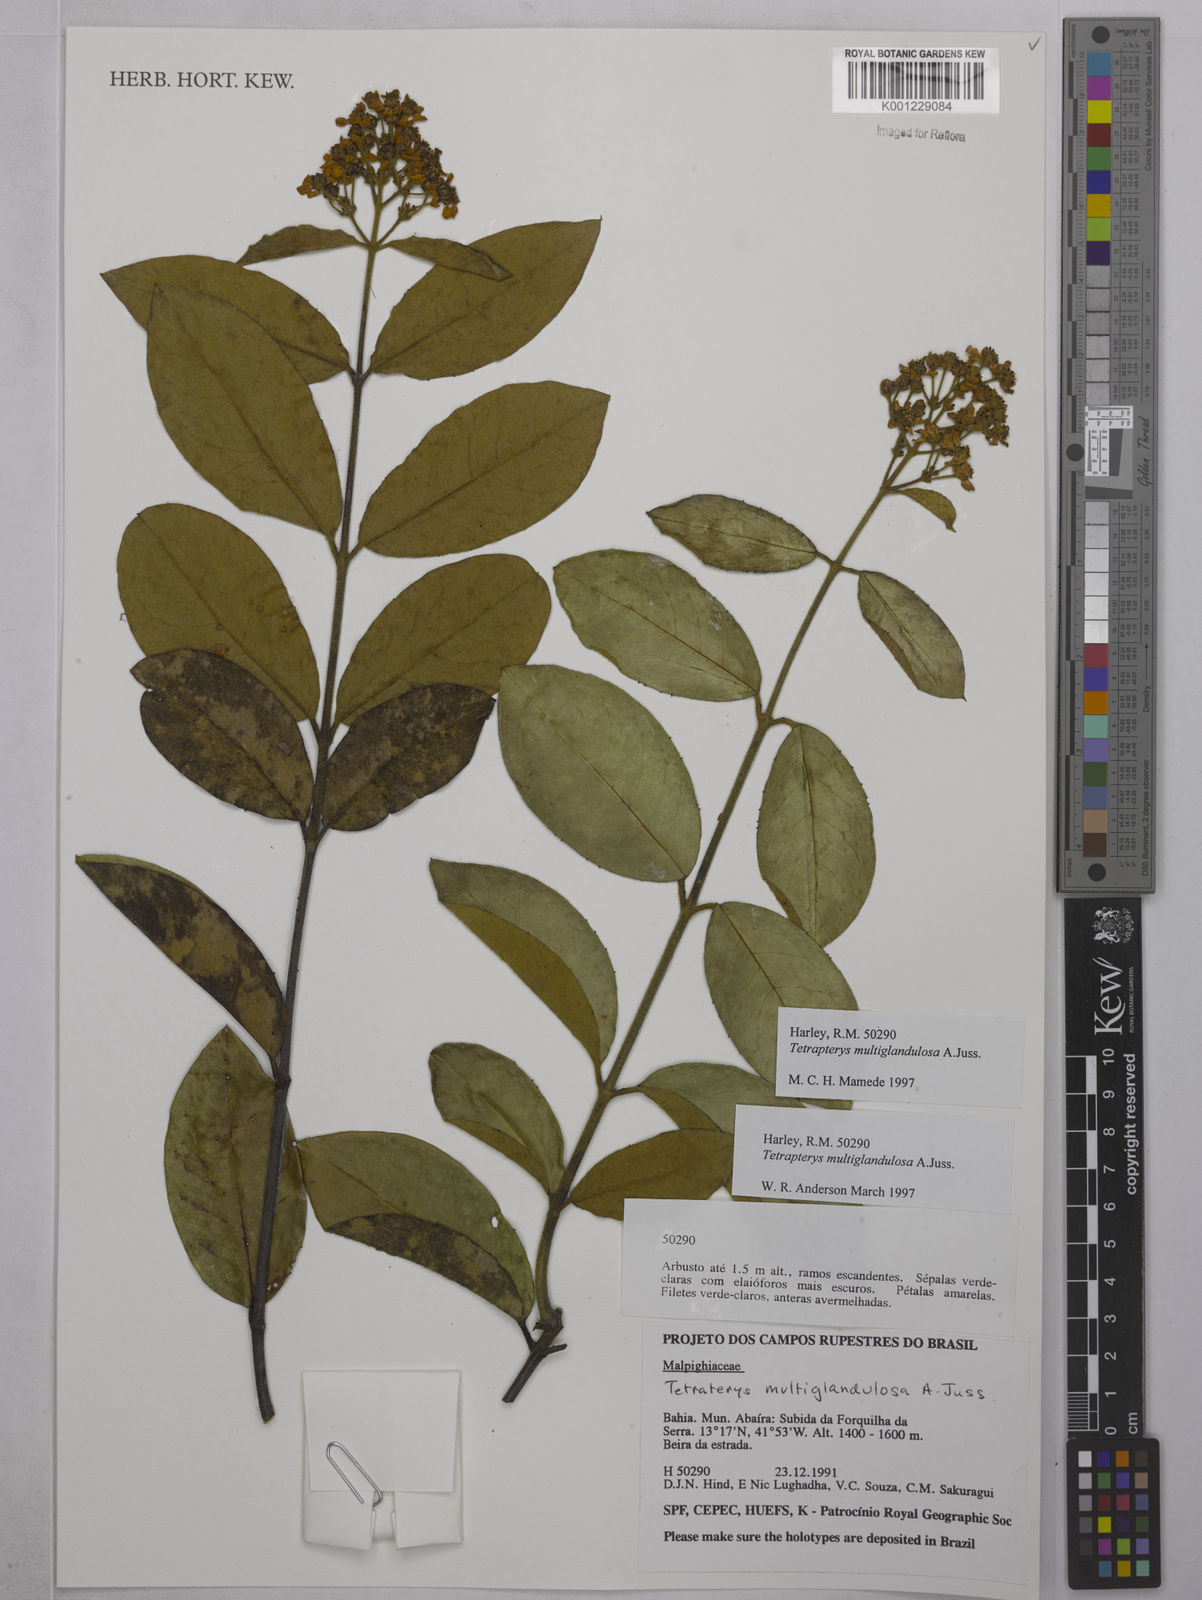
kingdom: Plantae
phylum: Tracheophyta
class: Magnoliopsida
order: Malpighiales
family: Malpighiaceae
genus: Niedenzuella
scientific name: Niedenzuella multiglandulosa
